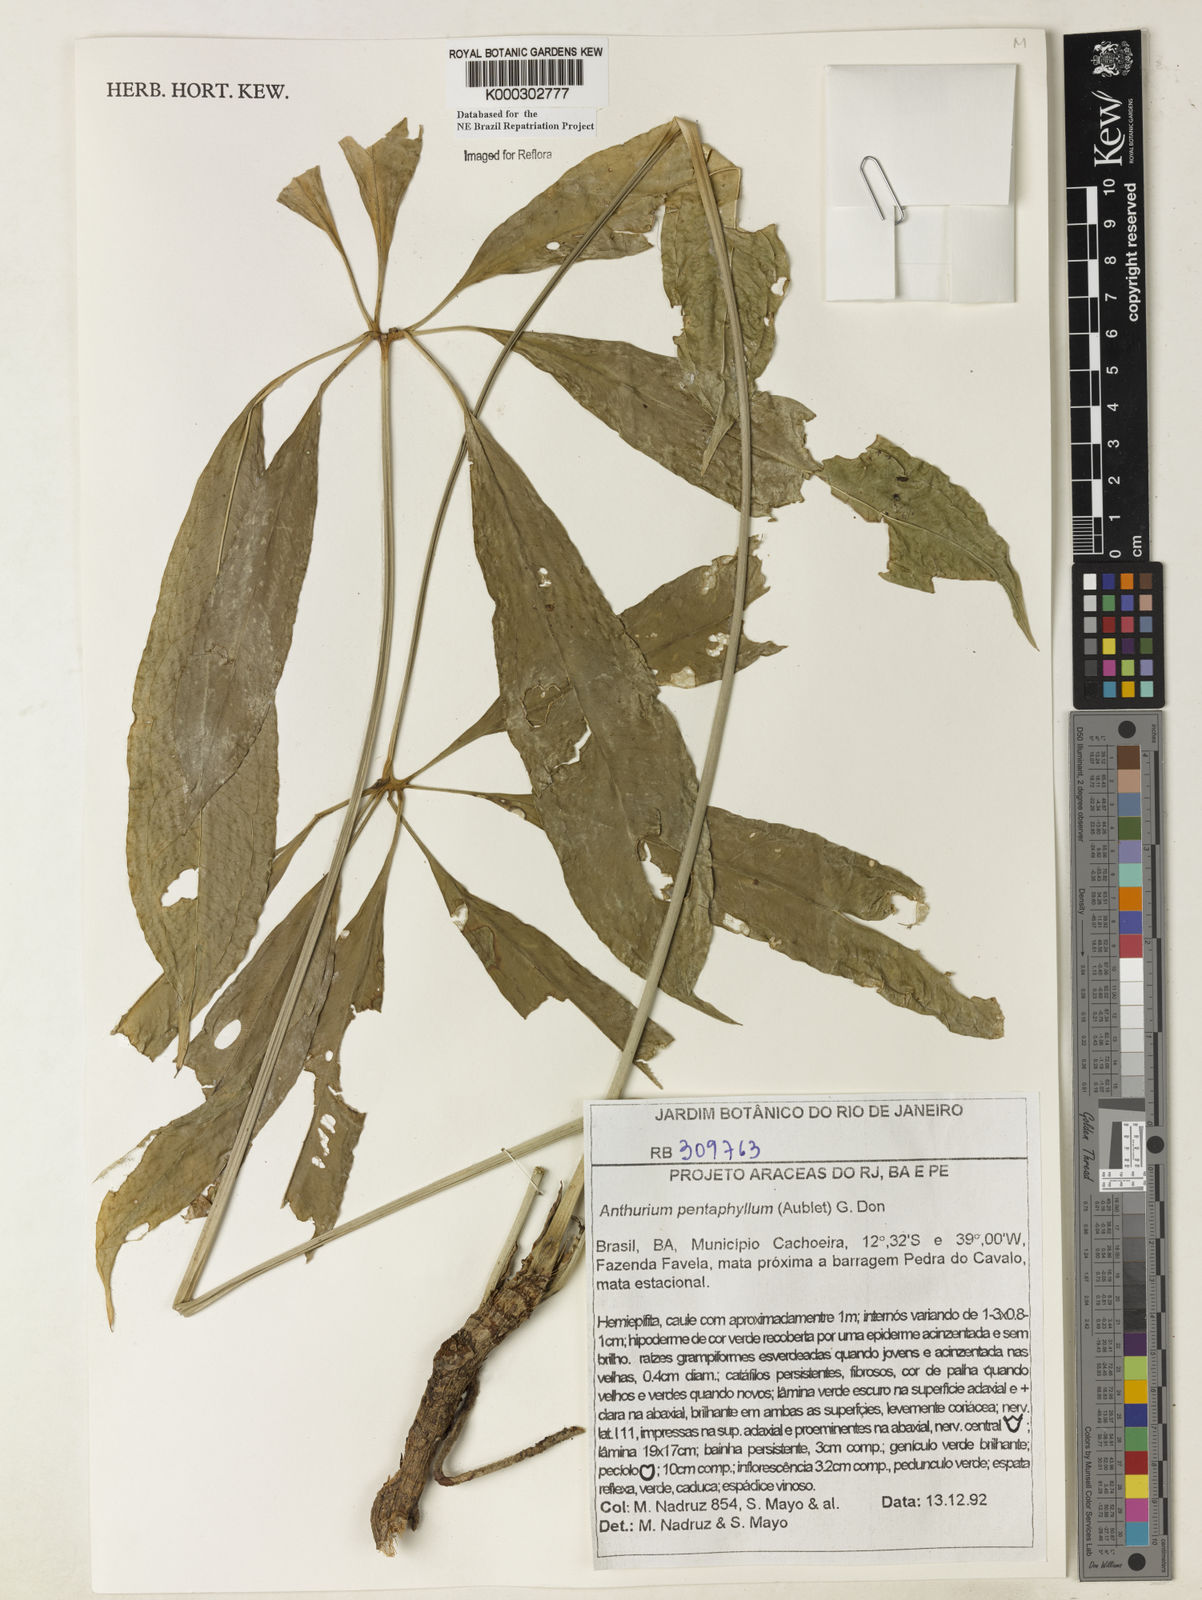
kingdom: Plantae
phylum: Tracheophyta
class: Liliopsida
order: Alismatales
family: Araceae
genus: Anthurium
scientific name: Anthurium pentaphyllum
